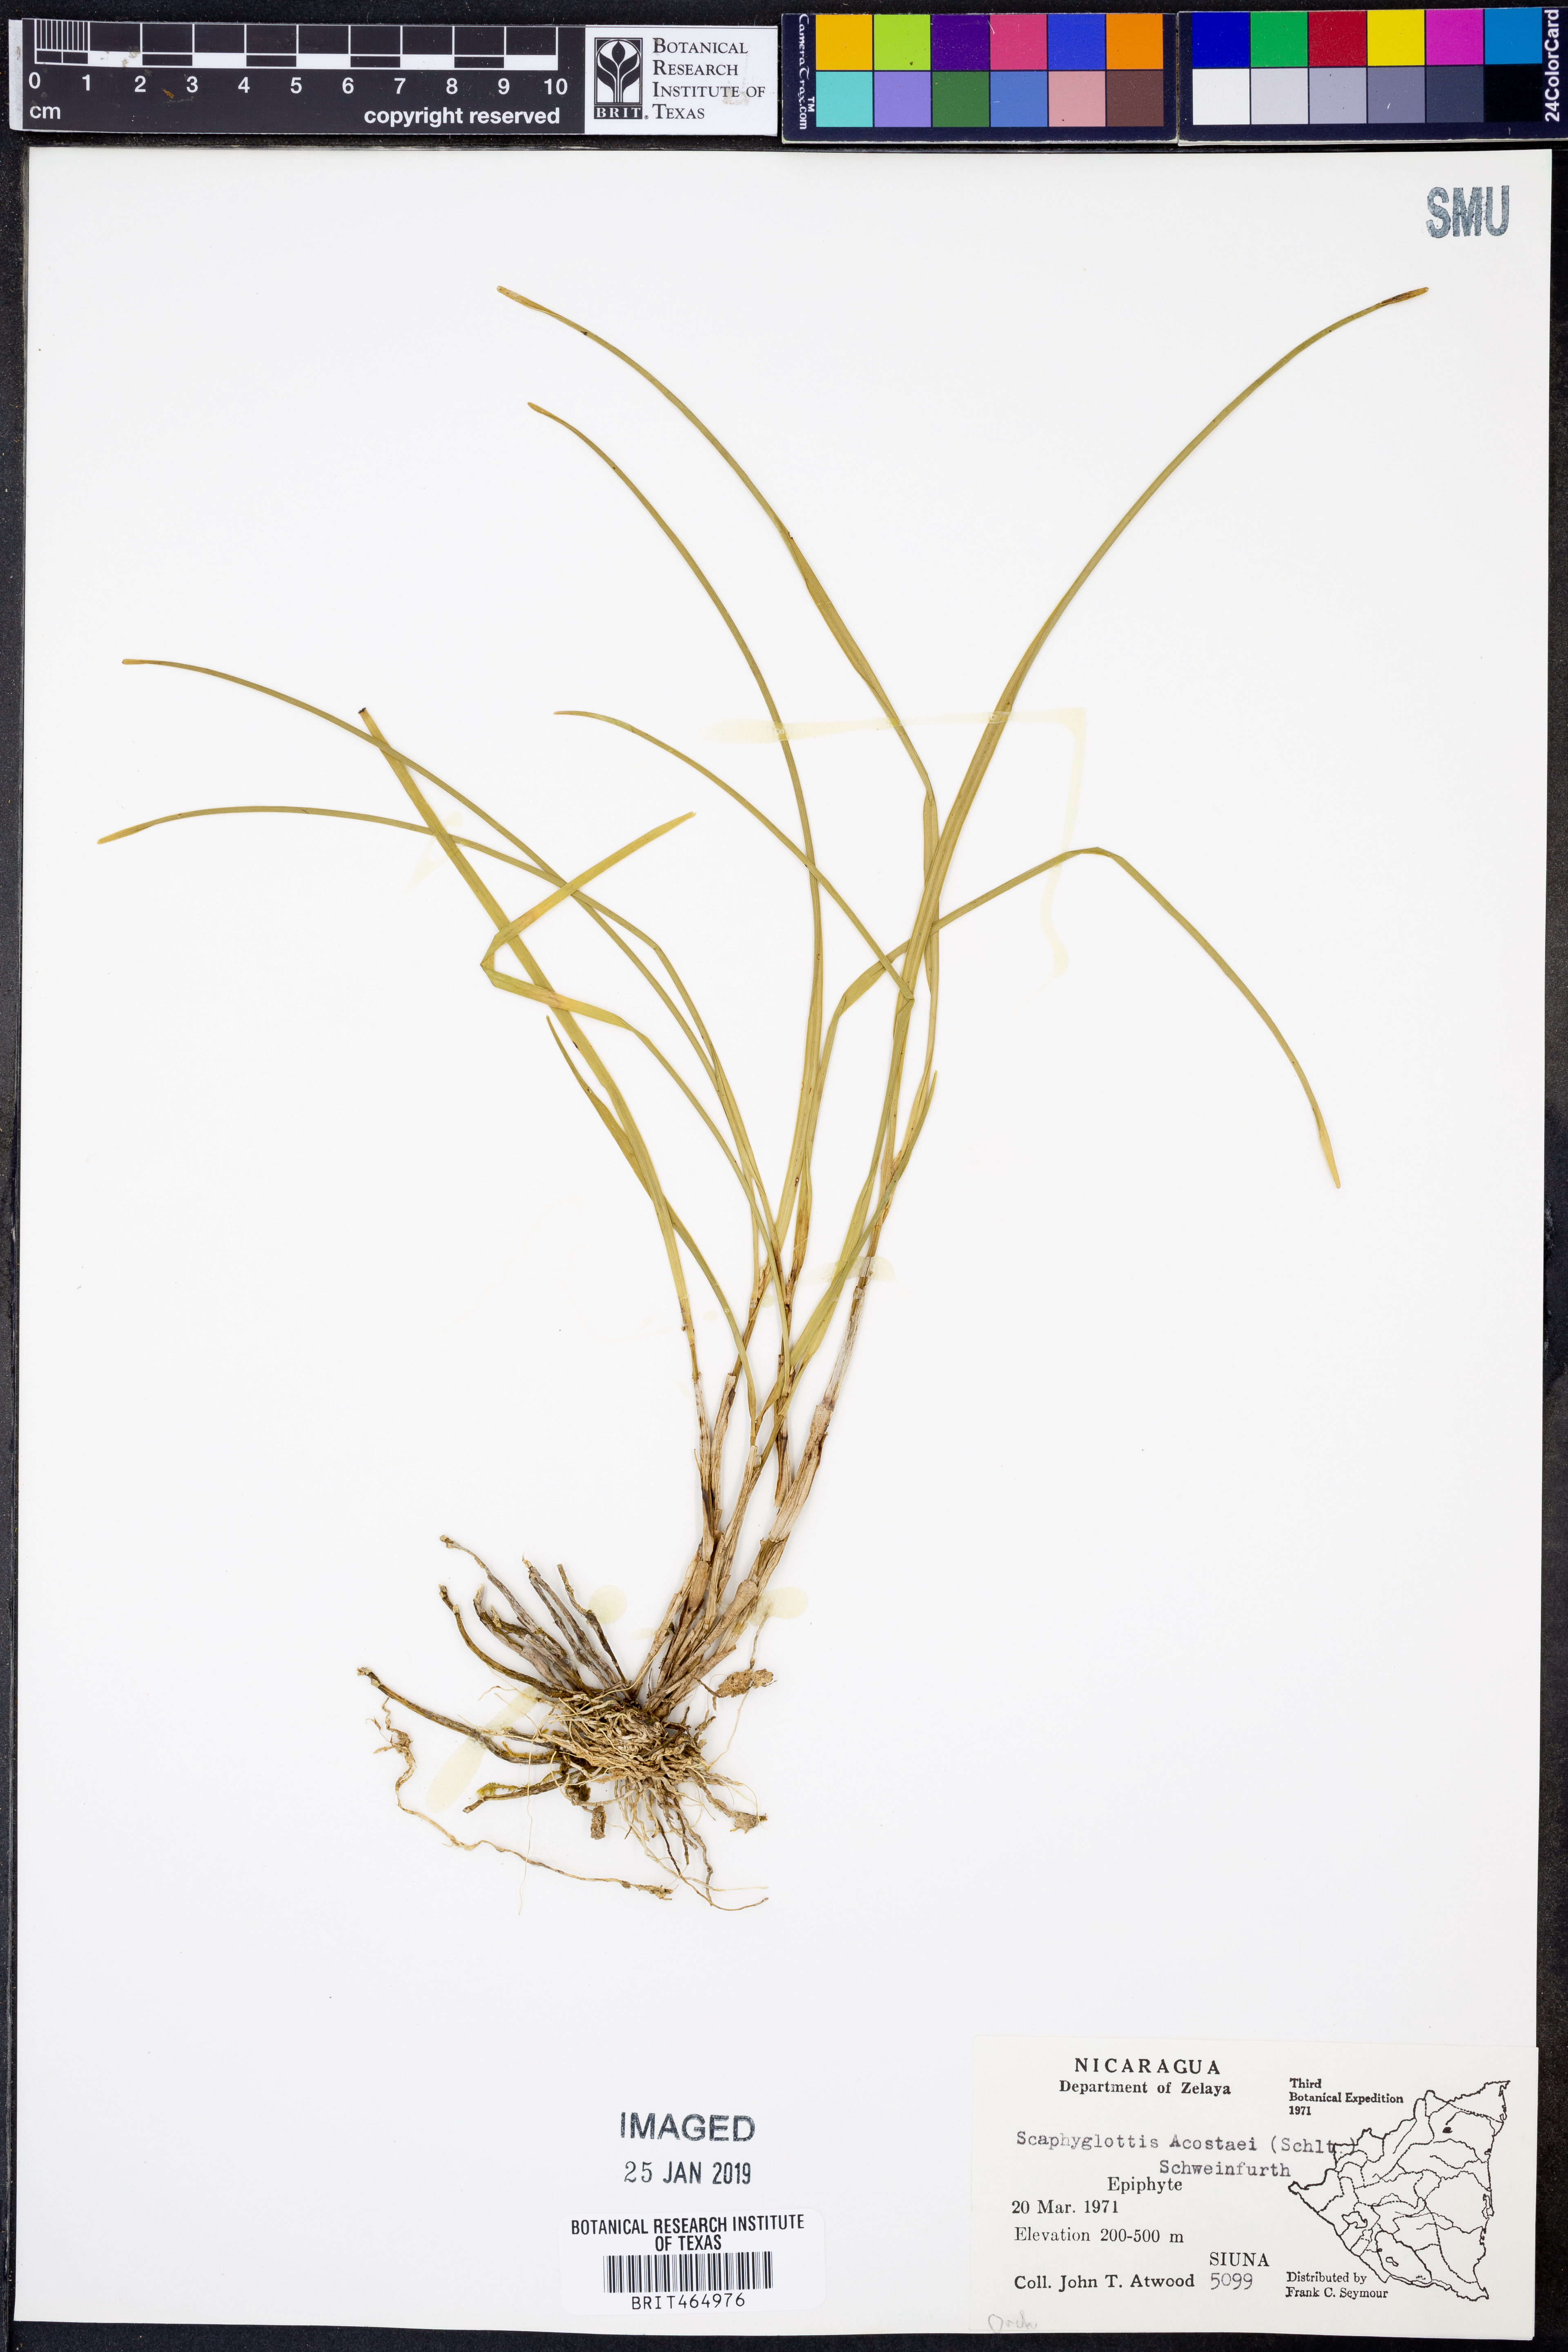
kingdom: Plantae
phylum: Tracheophyta
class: Liliopsida
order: Asparagales
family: Orchidaceae
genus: Scaphyglottis
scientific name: Scaphyglottis acostaei
